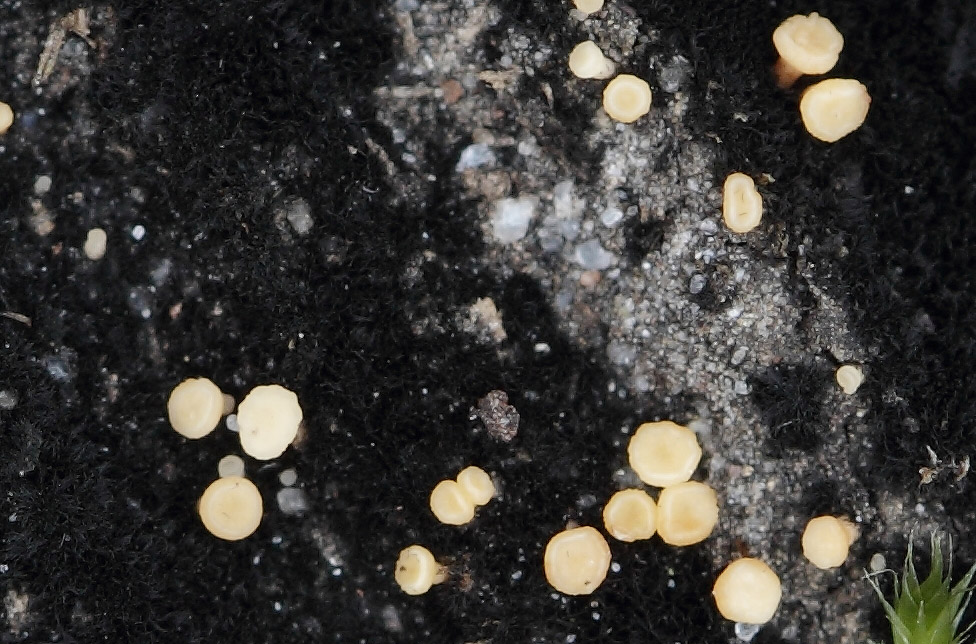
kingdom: Fungi
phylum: Ascomycota
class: Leotiomycetes
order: Helotiales
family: Helotiaceae
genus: Bispora
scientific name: Bispora pallescens
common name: måtte-snitskive
